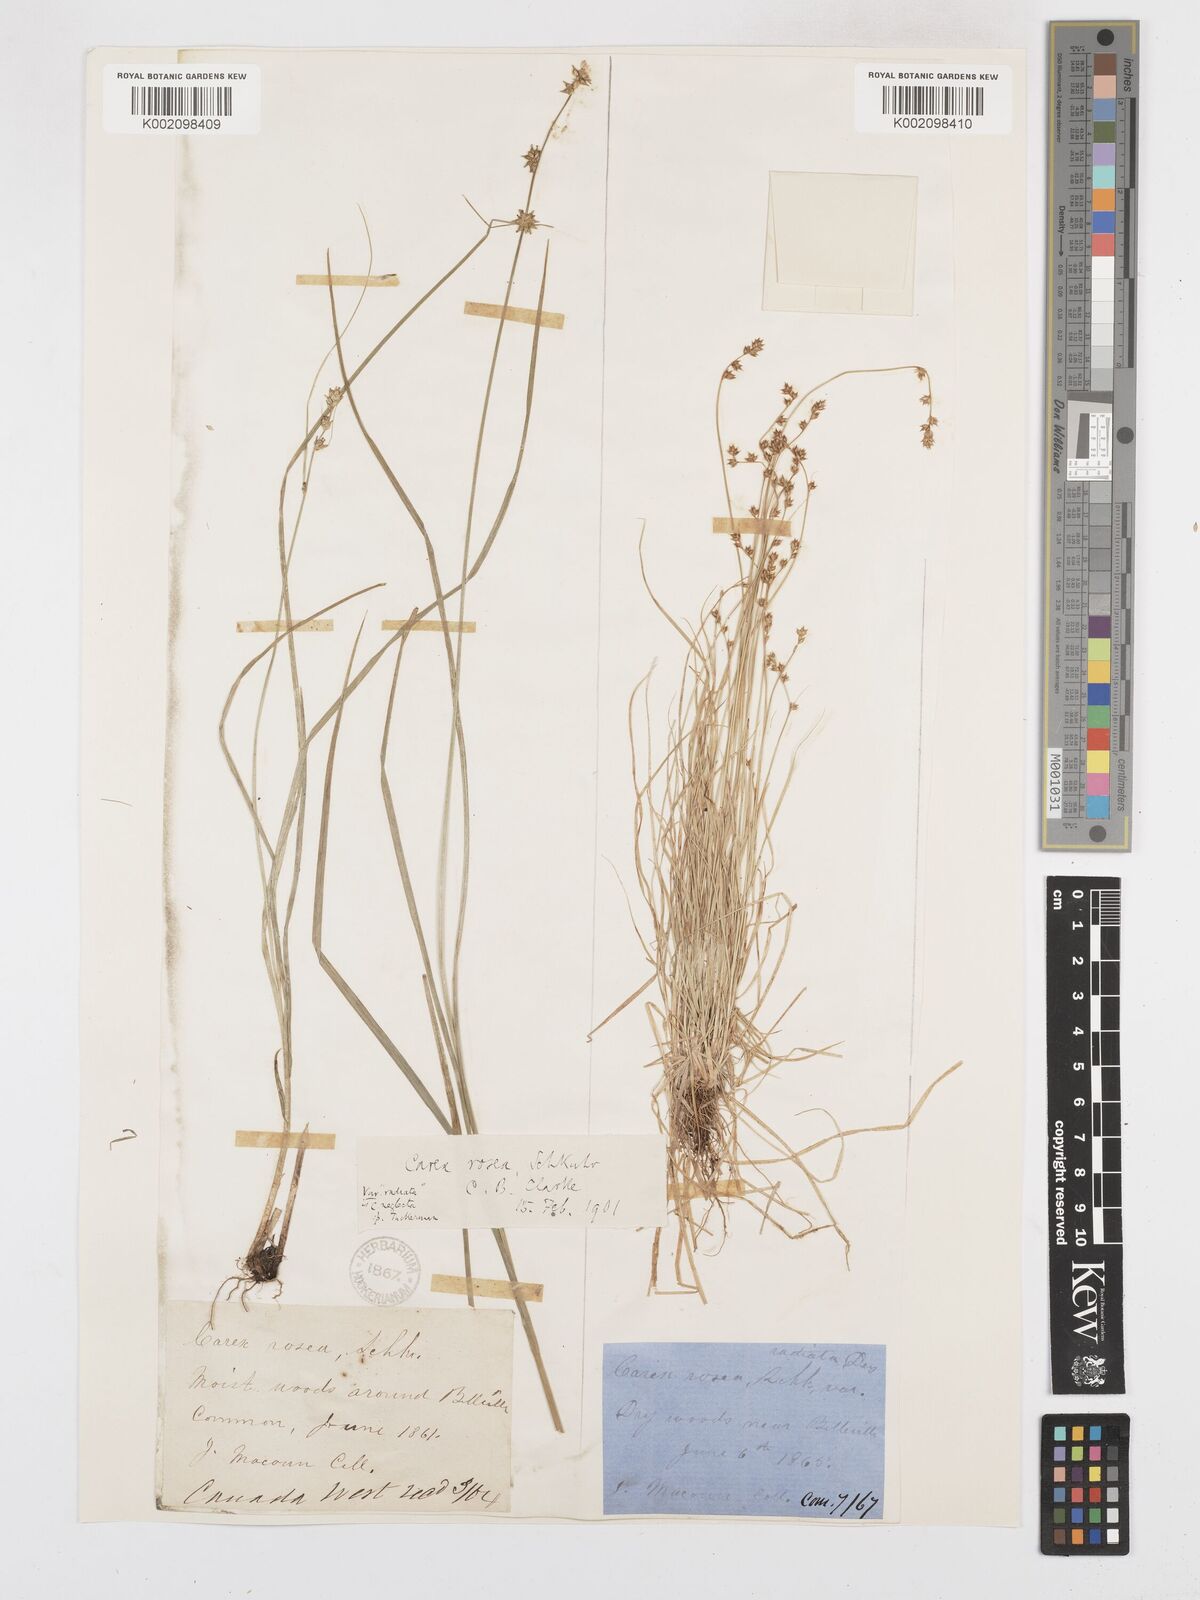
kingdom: Plantae
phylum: Tracheophyta
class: Liliopsida
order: Poales
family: Cyperaceae
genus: Carex
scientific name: Carex
